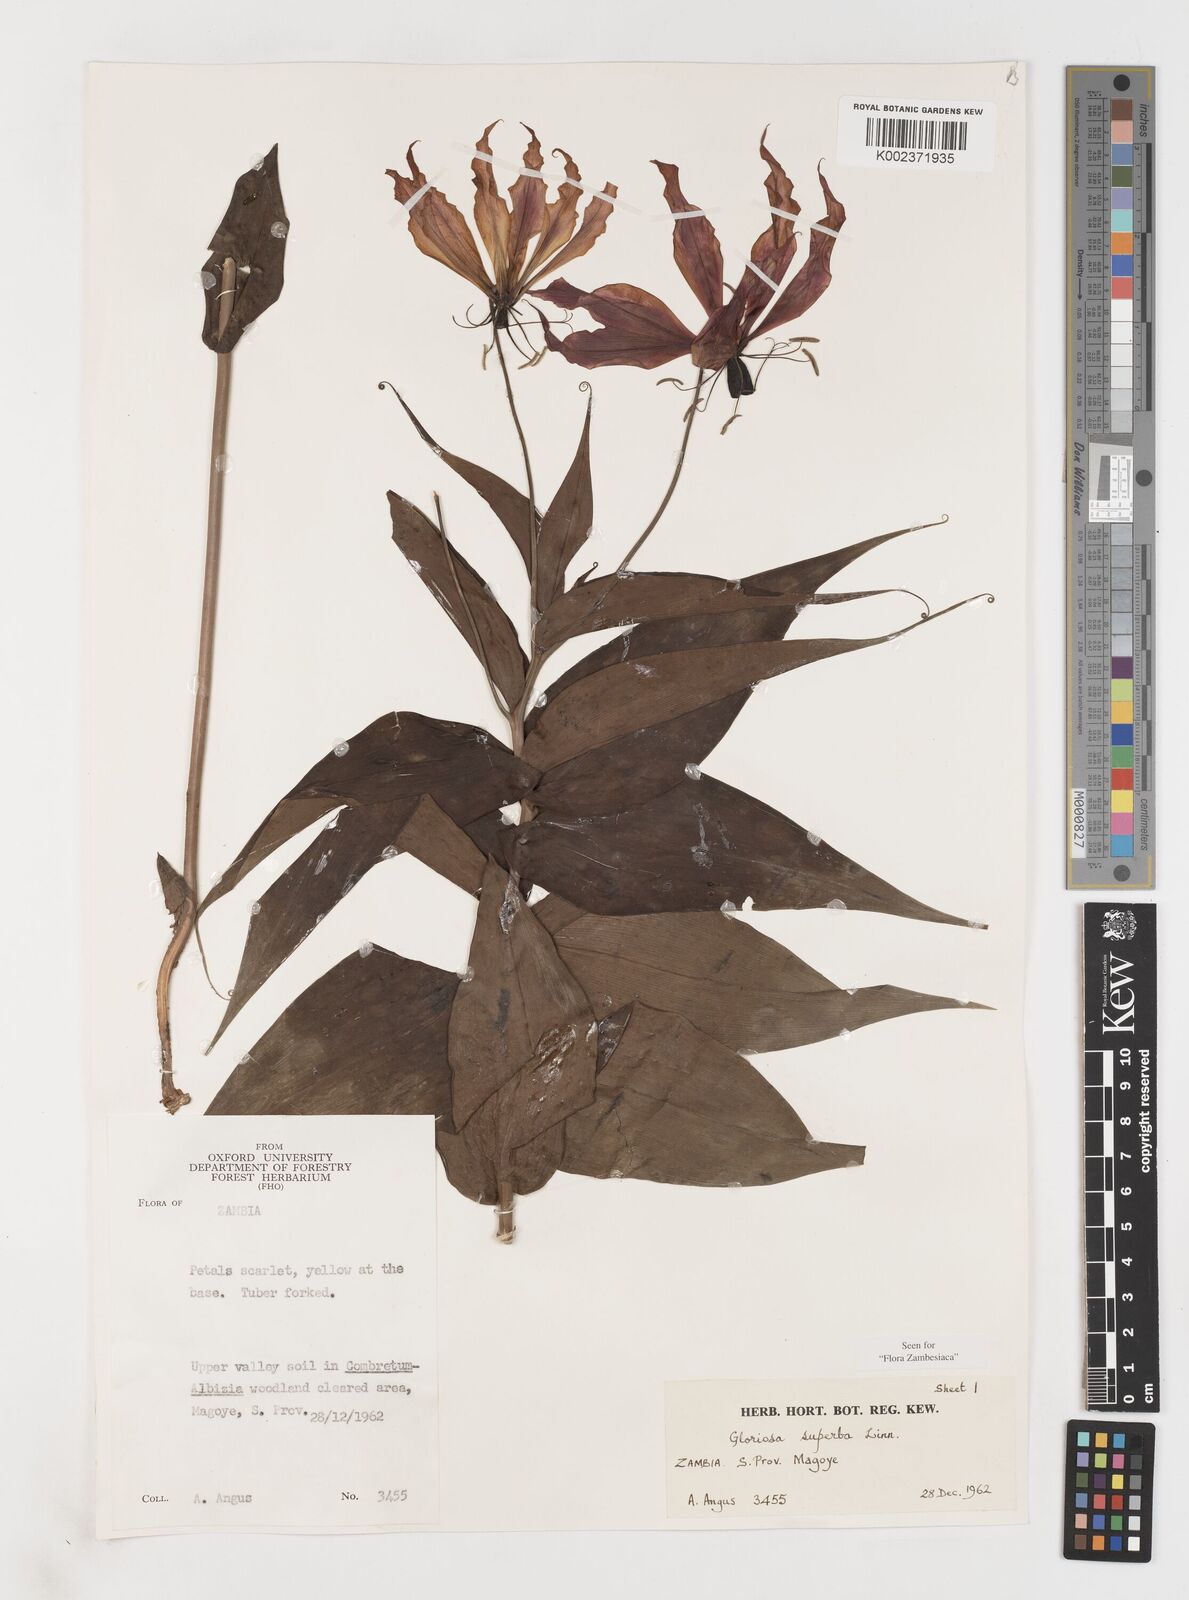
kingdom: Plantae
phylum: Tracheophyta
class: Liliopsida
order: Liliales
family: Colchicaceae
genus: Gloriosa
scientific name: Gloriosa simplex
